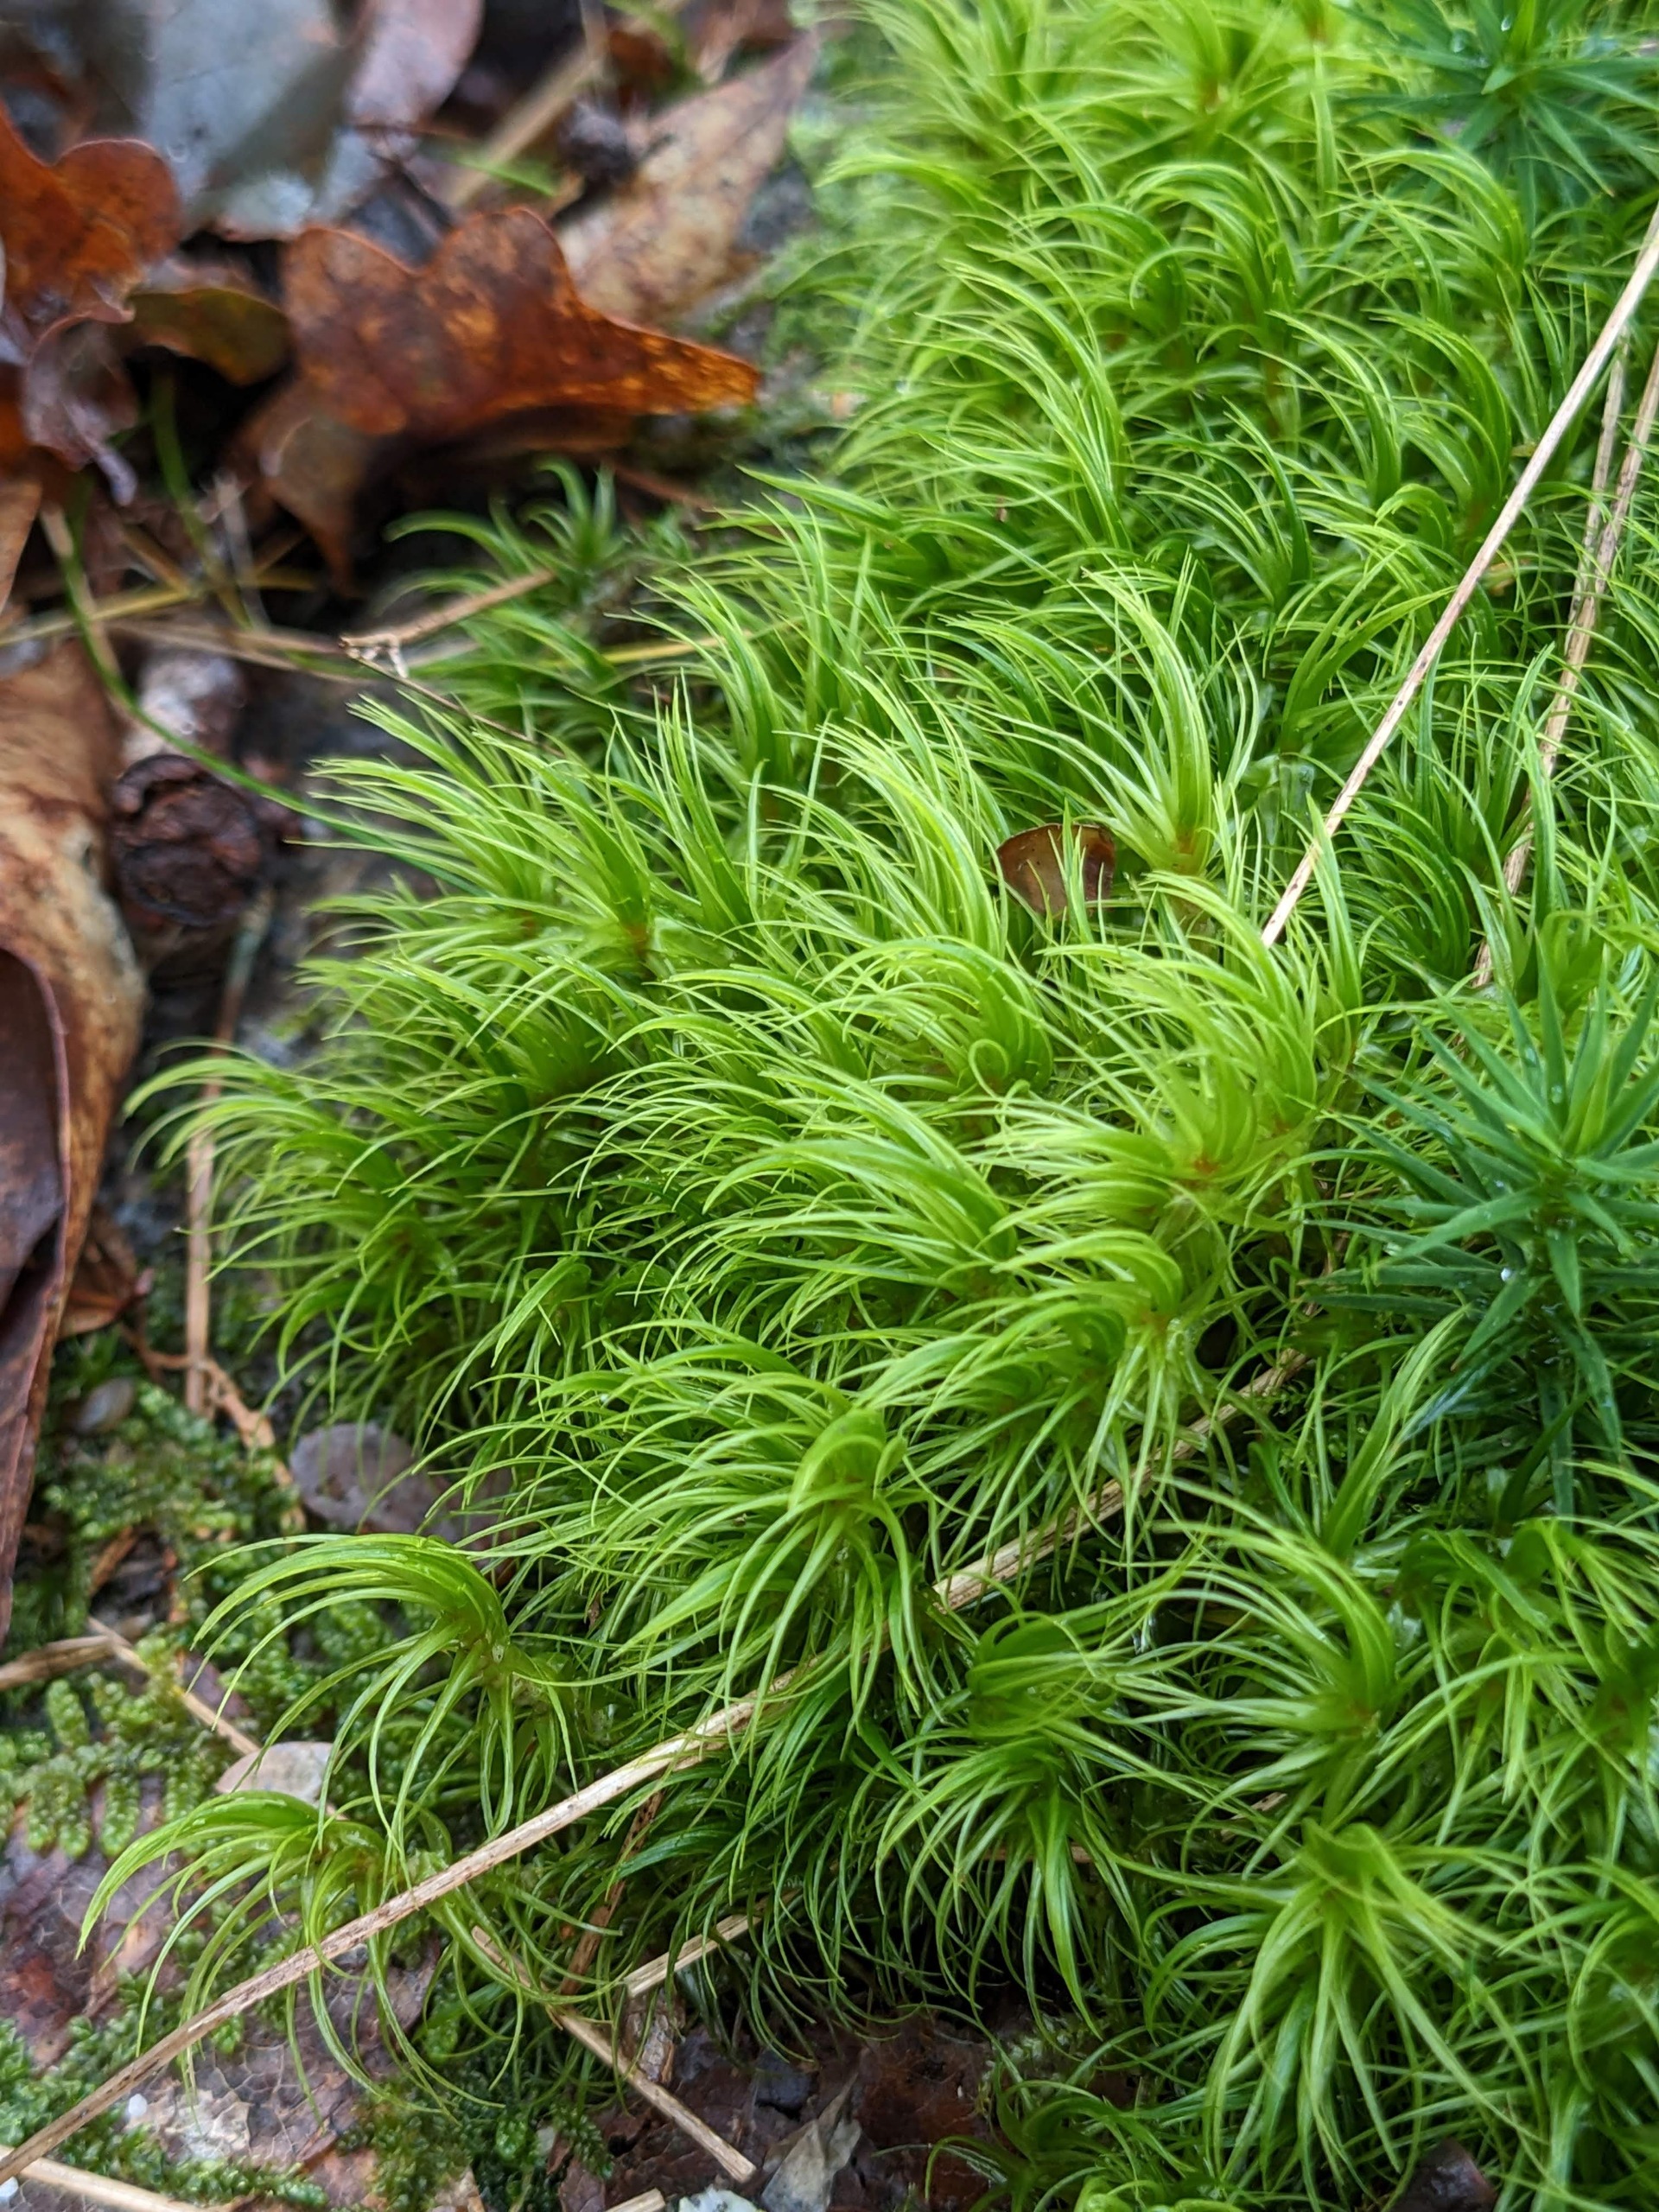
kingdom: Plantae
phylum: Bryophyta
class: Bryopsida
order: Dicranales
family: Dicranaceae
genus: Dicranum
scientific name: Dicranum majus
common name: Stor kløvtand
